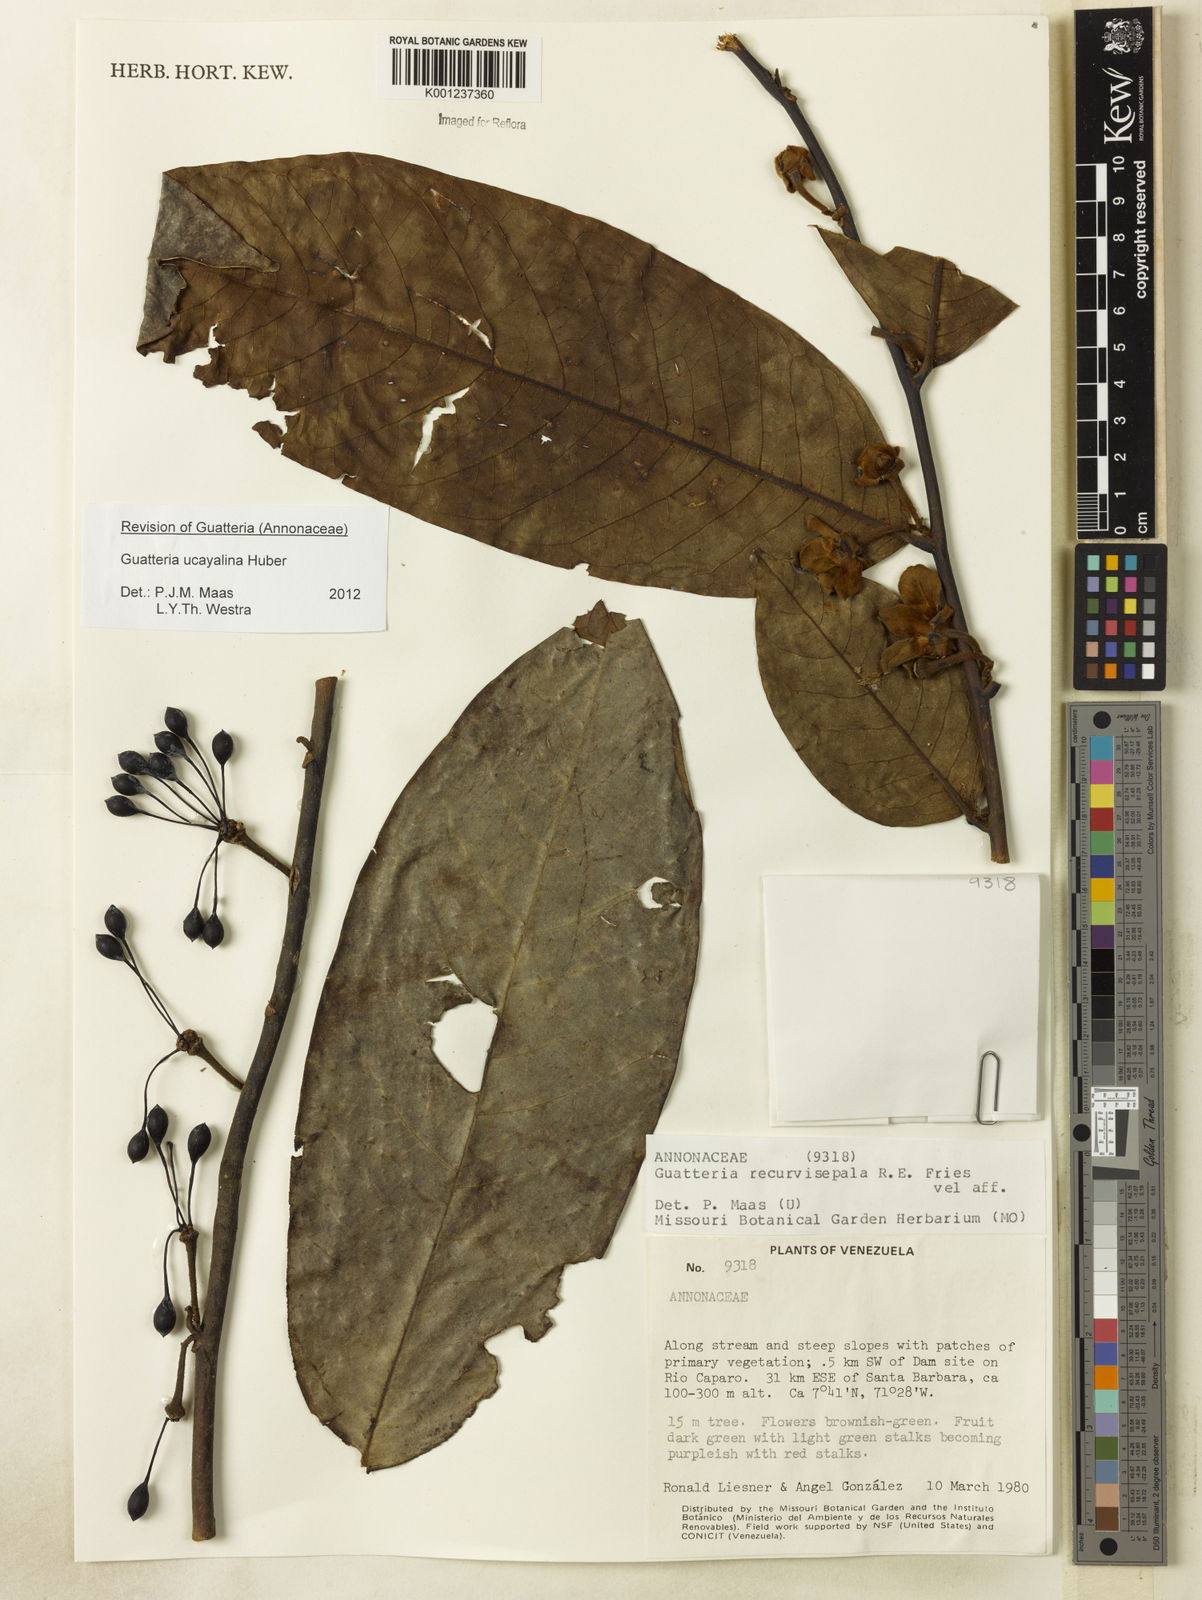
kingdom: Plantae
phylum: Tracheophyta
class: Magnoliopsida
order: Magnoliales
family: Annonaceae
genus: Guatteria
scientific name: Guatteria blepharophylla
